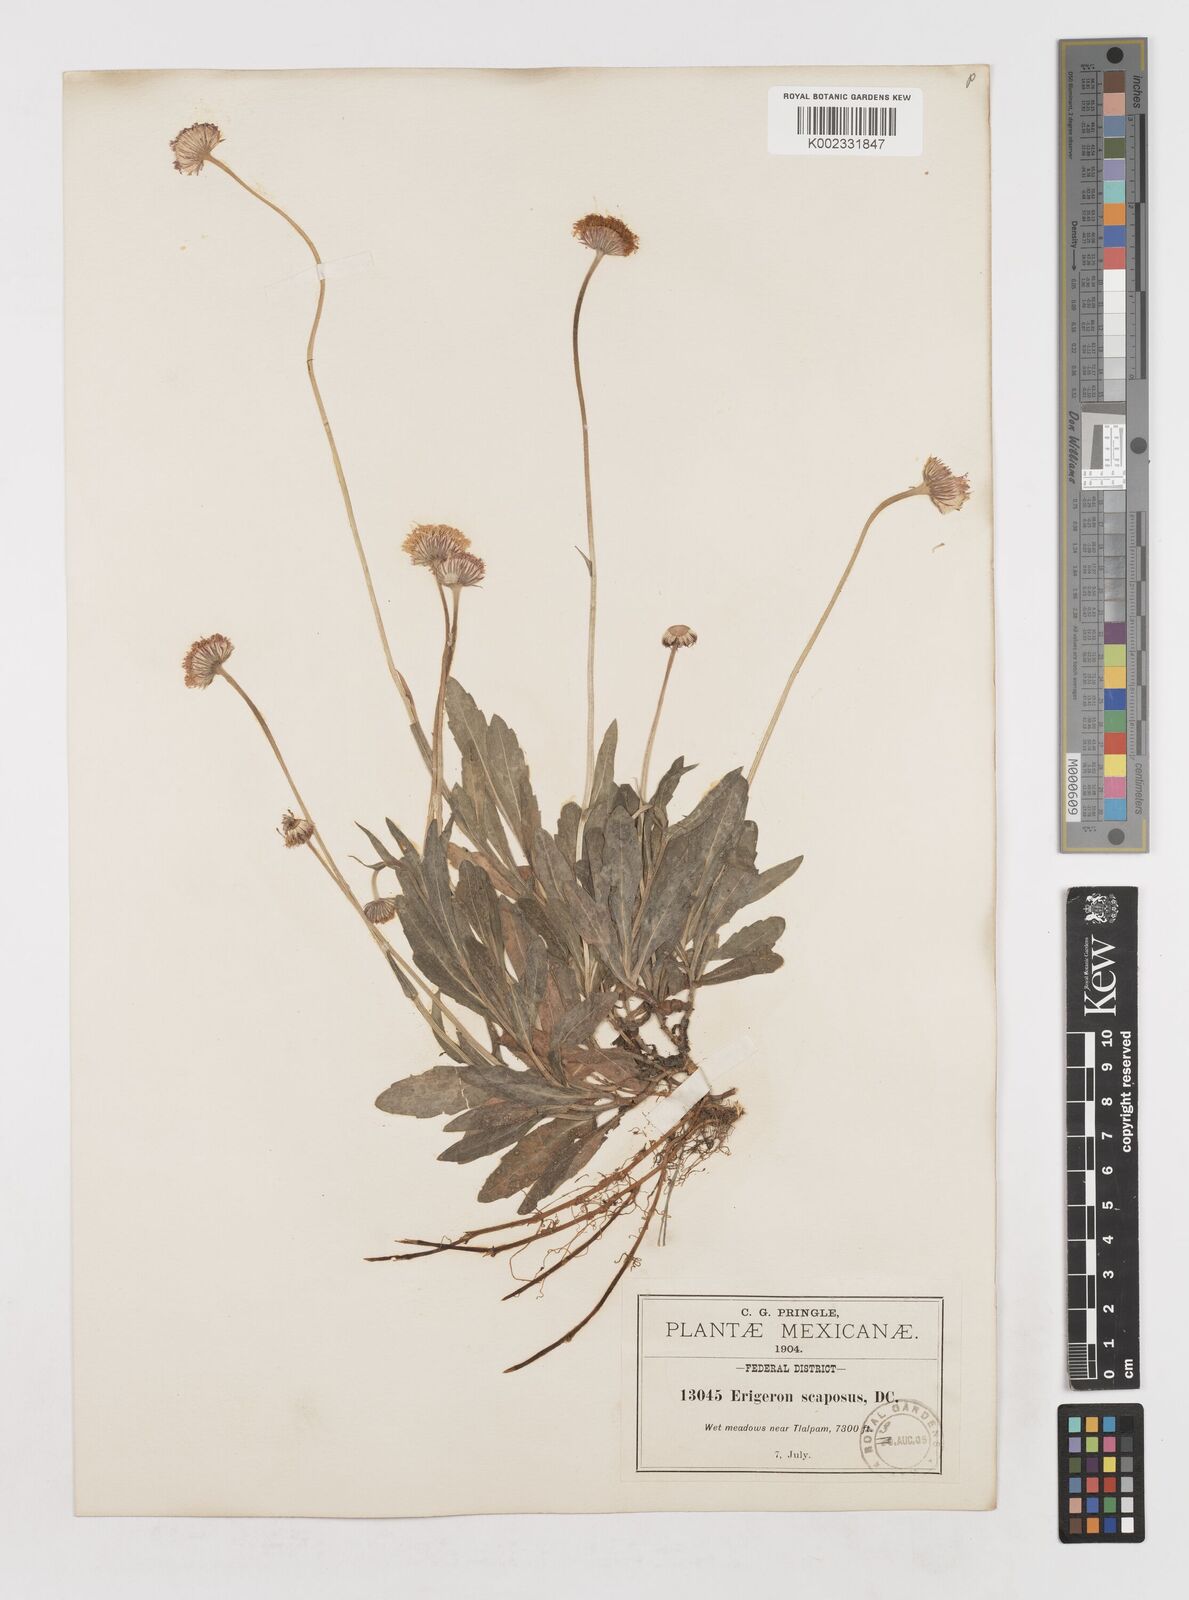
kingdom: Plantae
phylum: Tracheophyta
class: Magnoliopsida
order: Asterales
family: Asteraceae
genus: Erigeron
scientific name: Erigeron longipes
